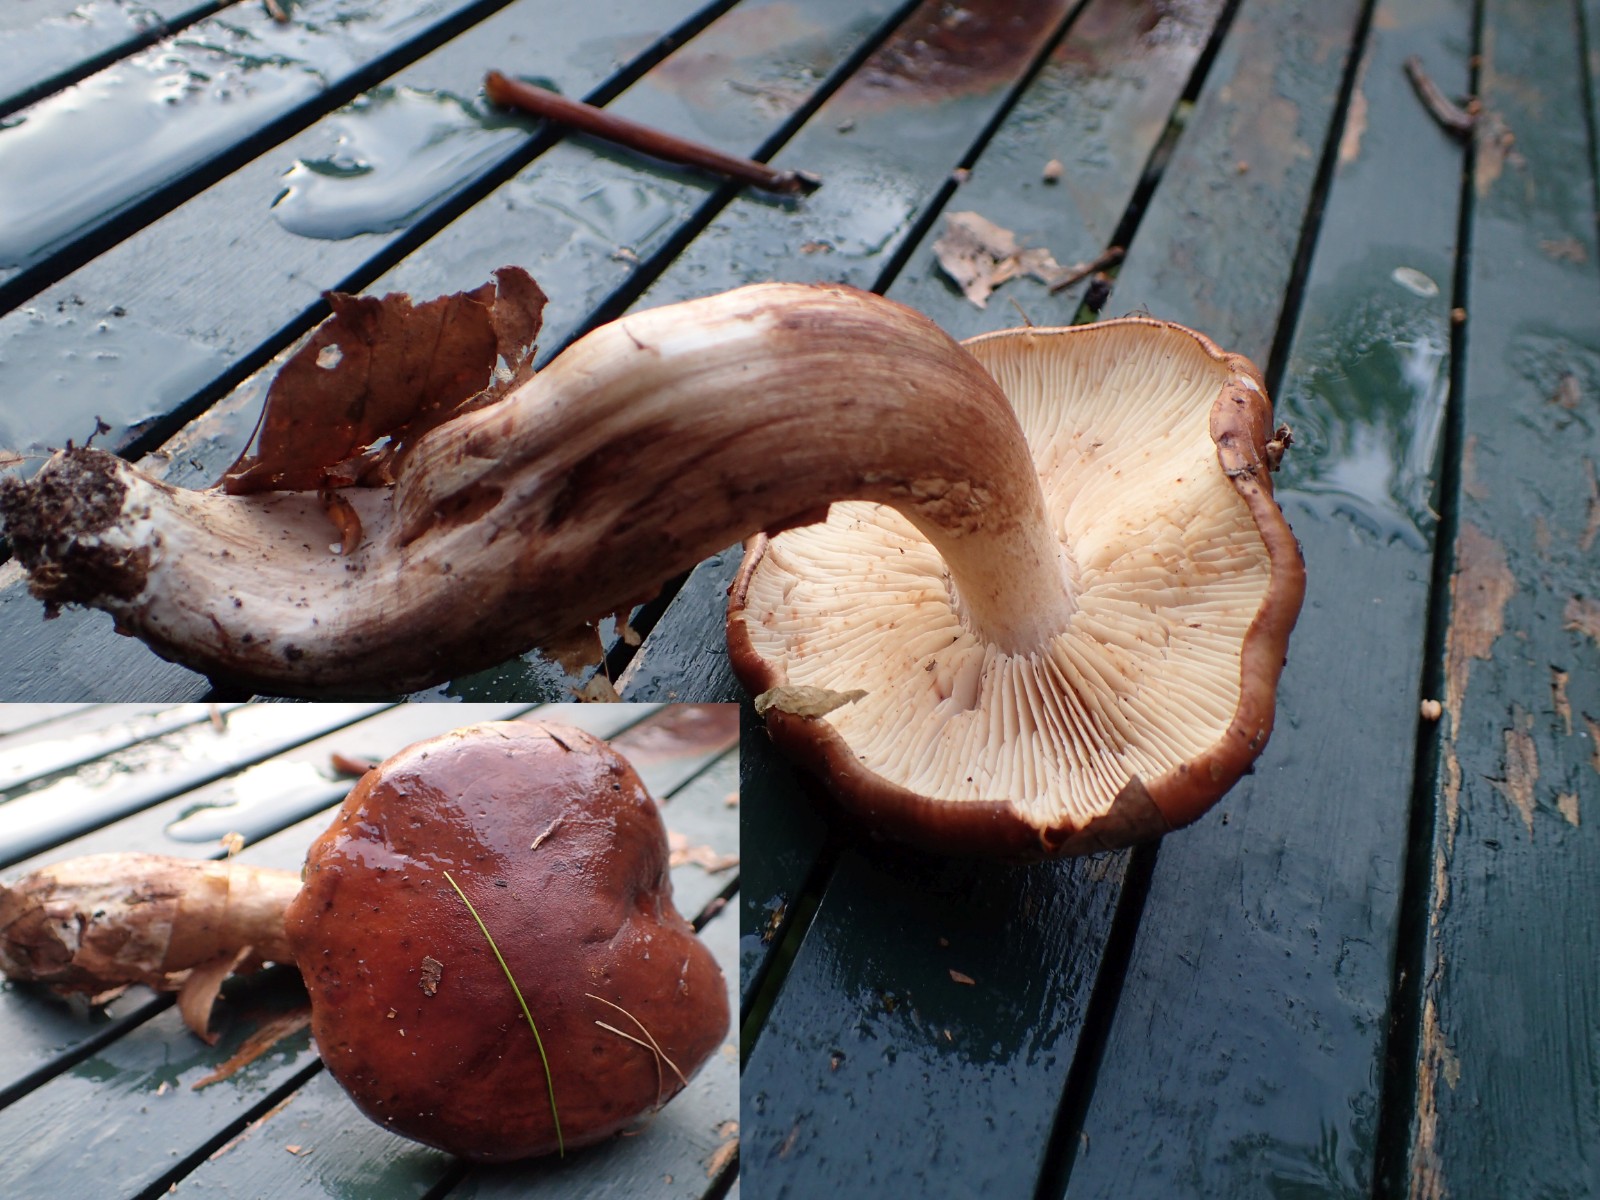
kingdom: Fungi
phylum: Basidiomycota
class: Agaricomycetes
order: Agaricales
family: Tricholomataceae
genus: Tricholoma
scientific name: Tricholoma ustale
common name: sveden ridderhat
